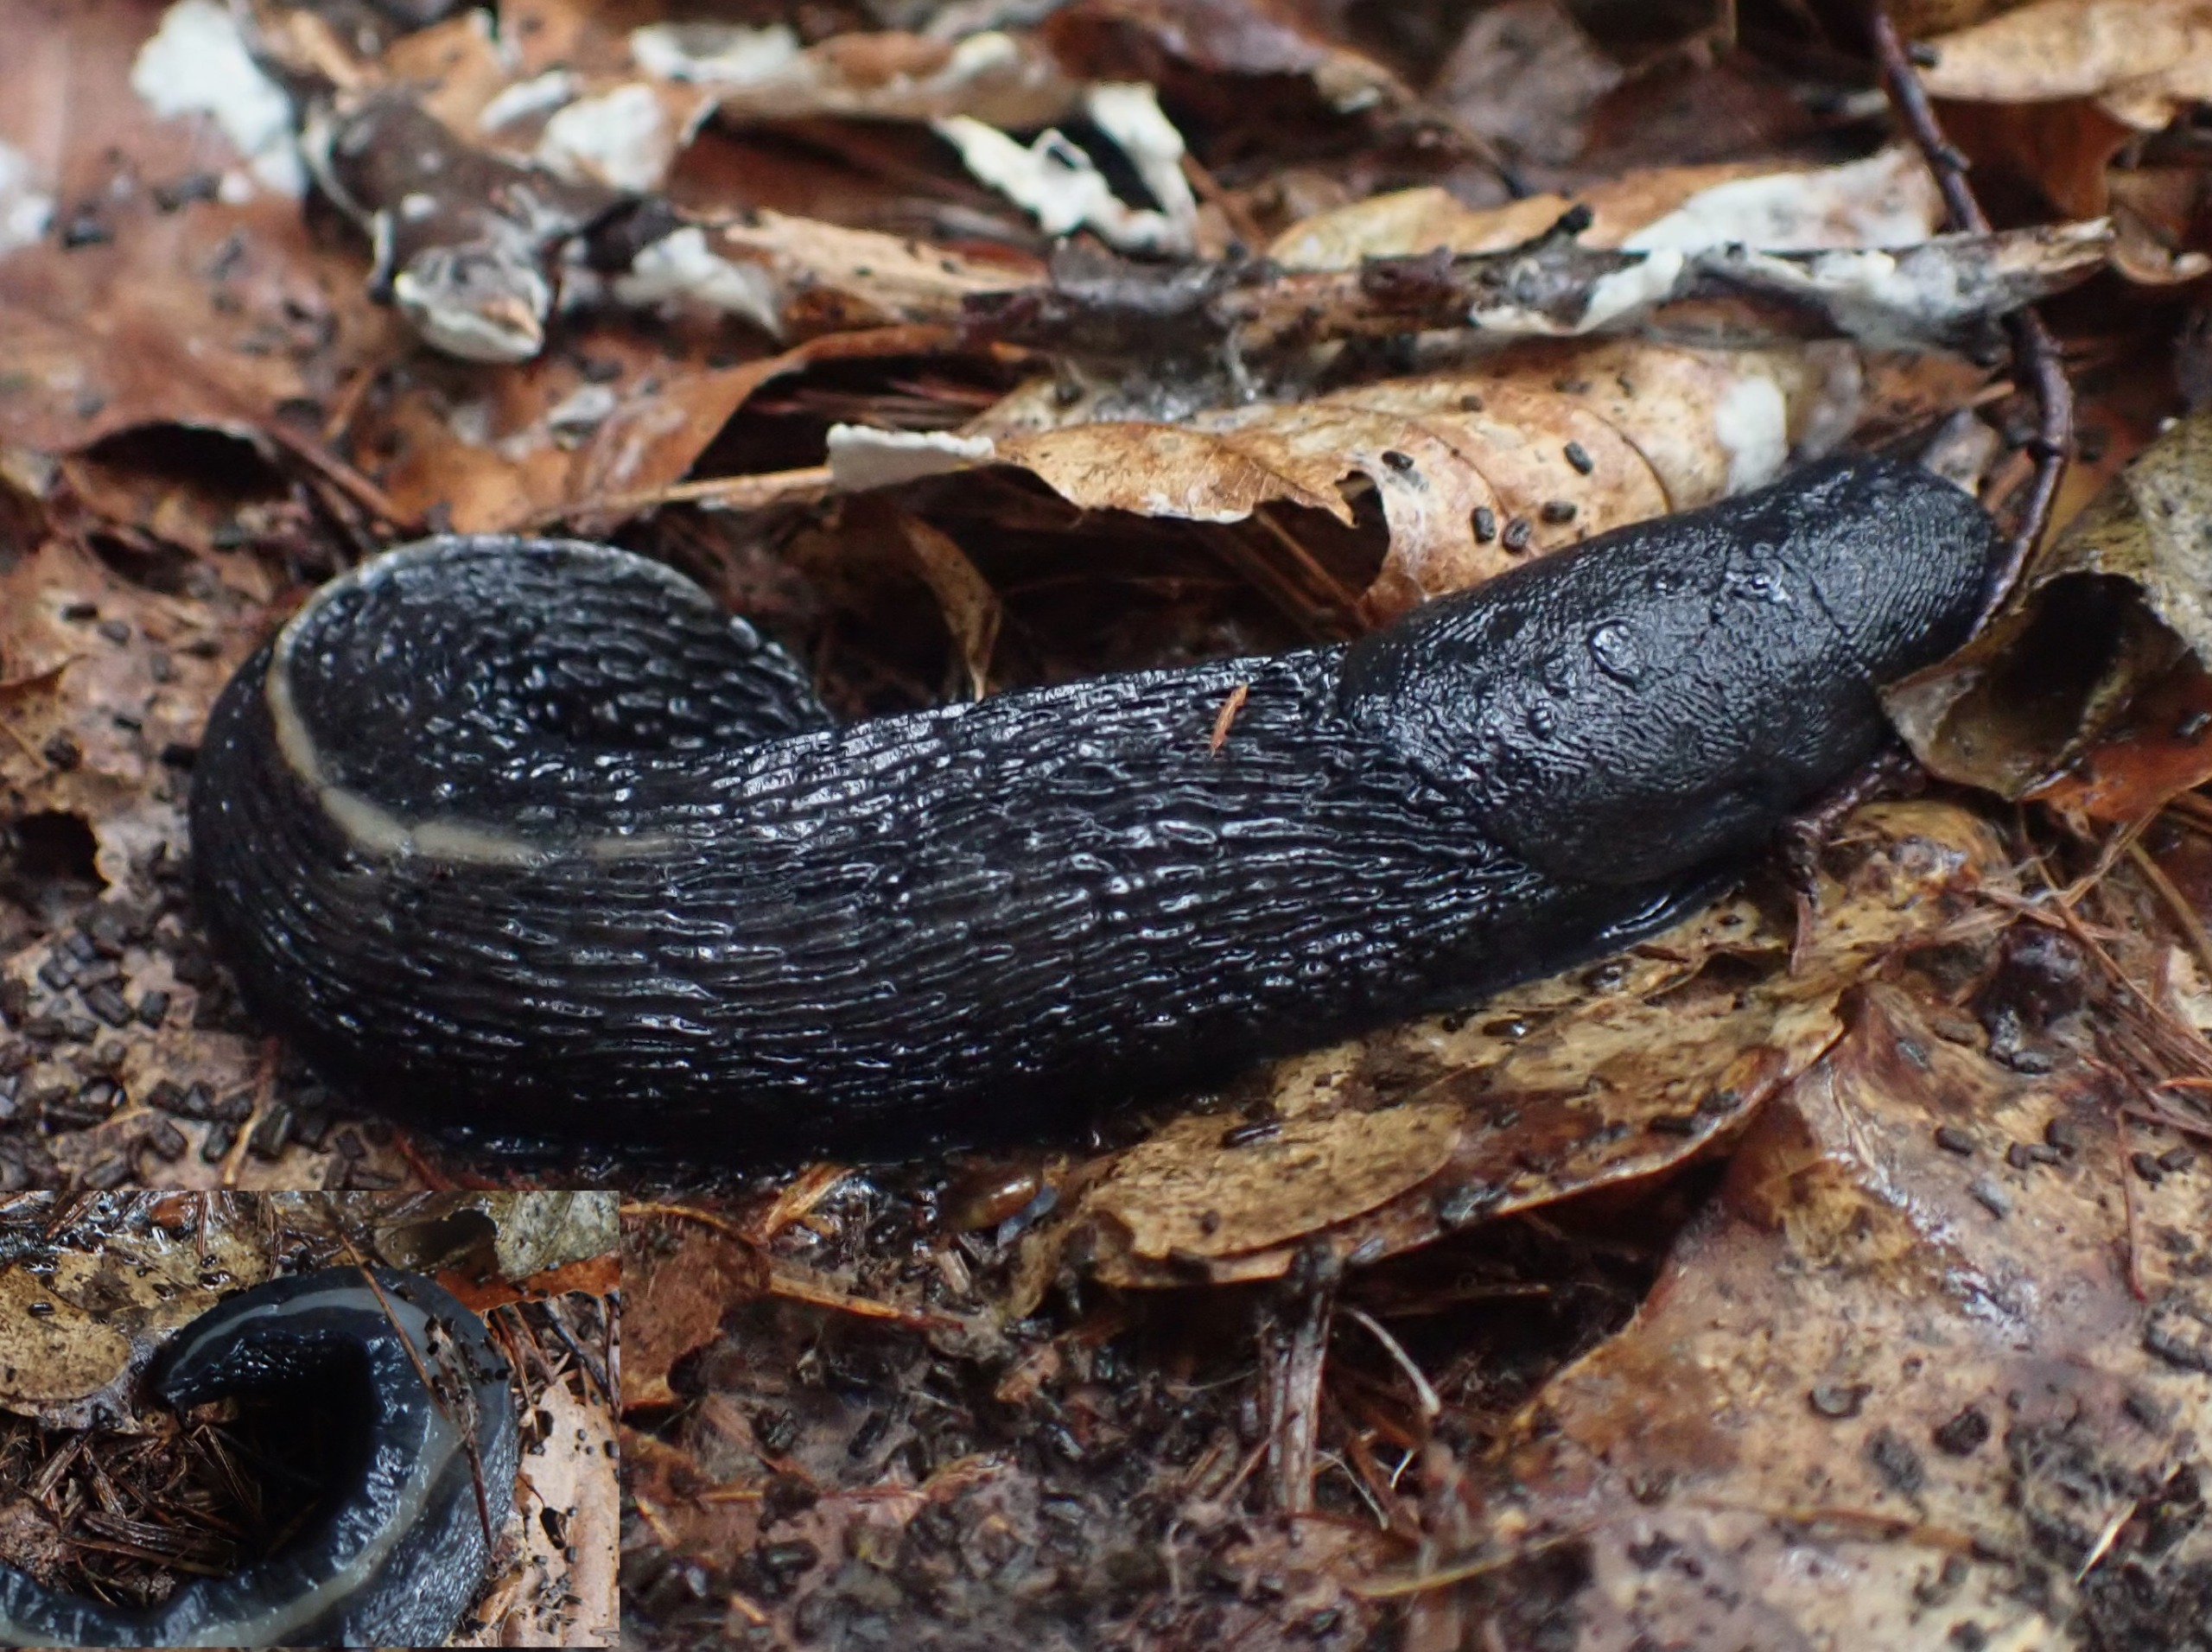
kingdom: Animalia
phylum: Mollusca
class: Gastropoda
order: Stylommatophora
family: Limacidae
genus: Limax
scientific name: Limax cinereoniger
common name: Skovpantersnegl
